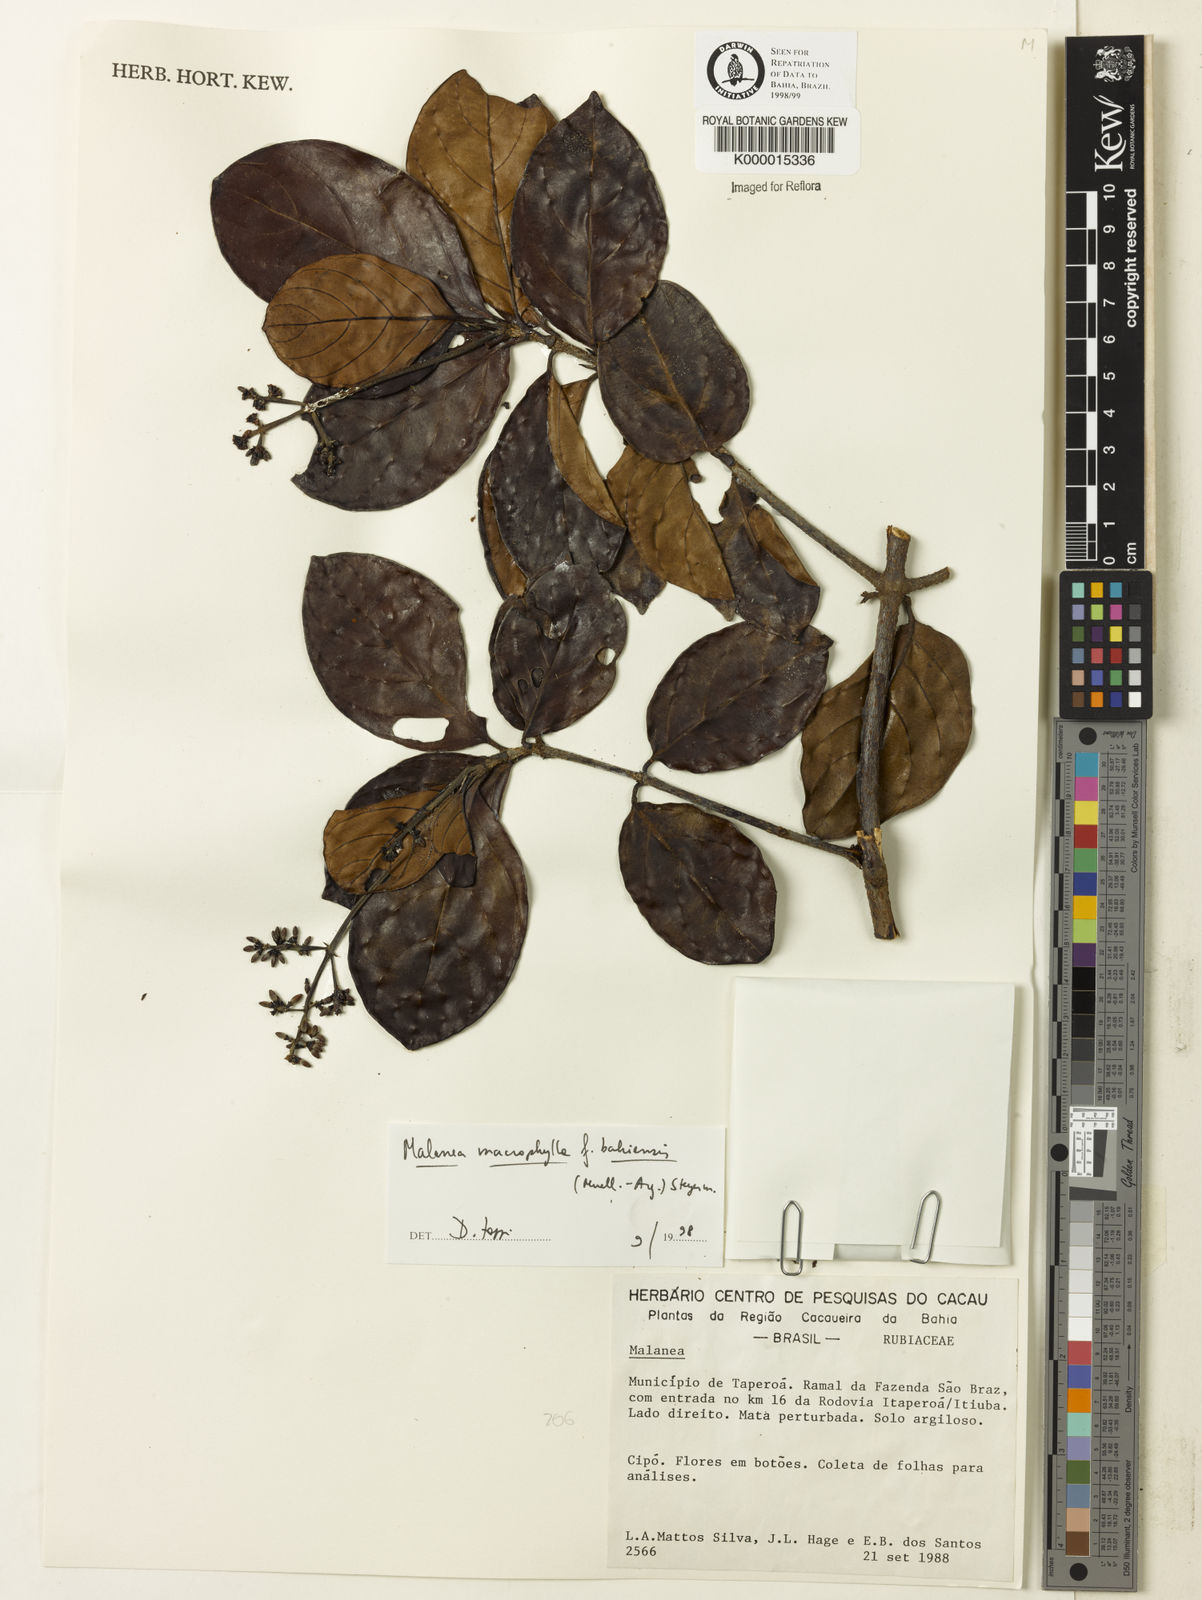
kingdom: Plantae
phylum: Tracheophyta
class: Magnoliopsida
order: Gentianales
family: Rubiaceae
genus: Malanea
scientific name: Malanea glabra
